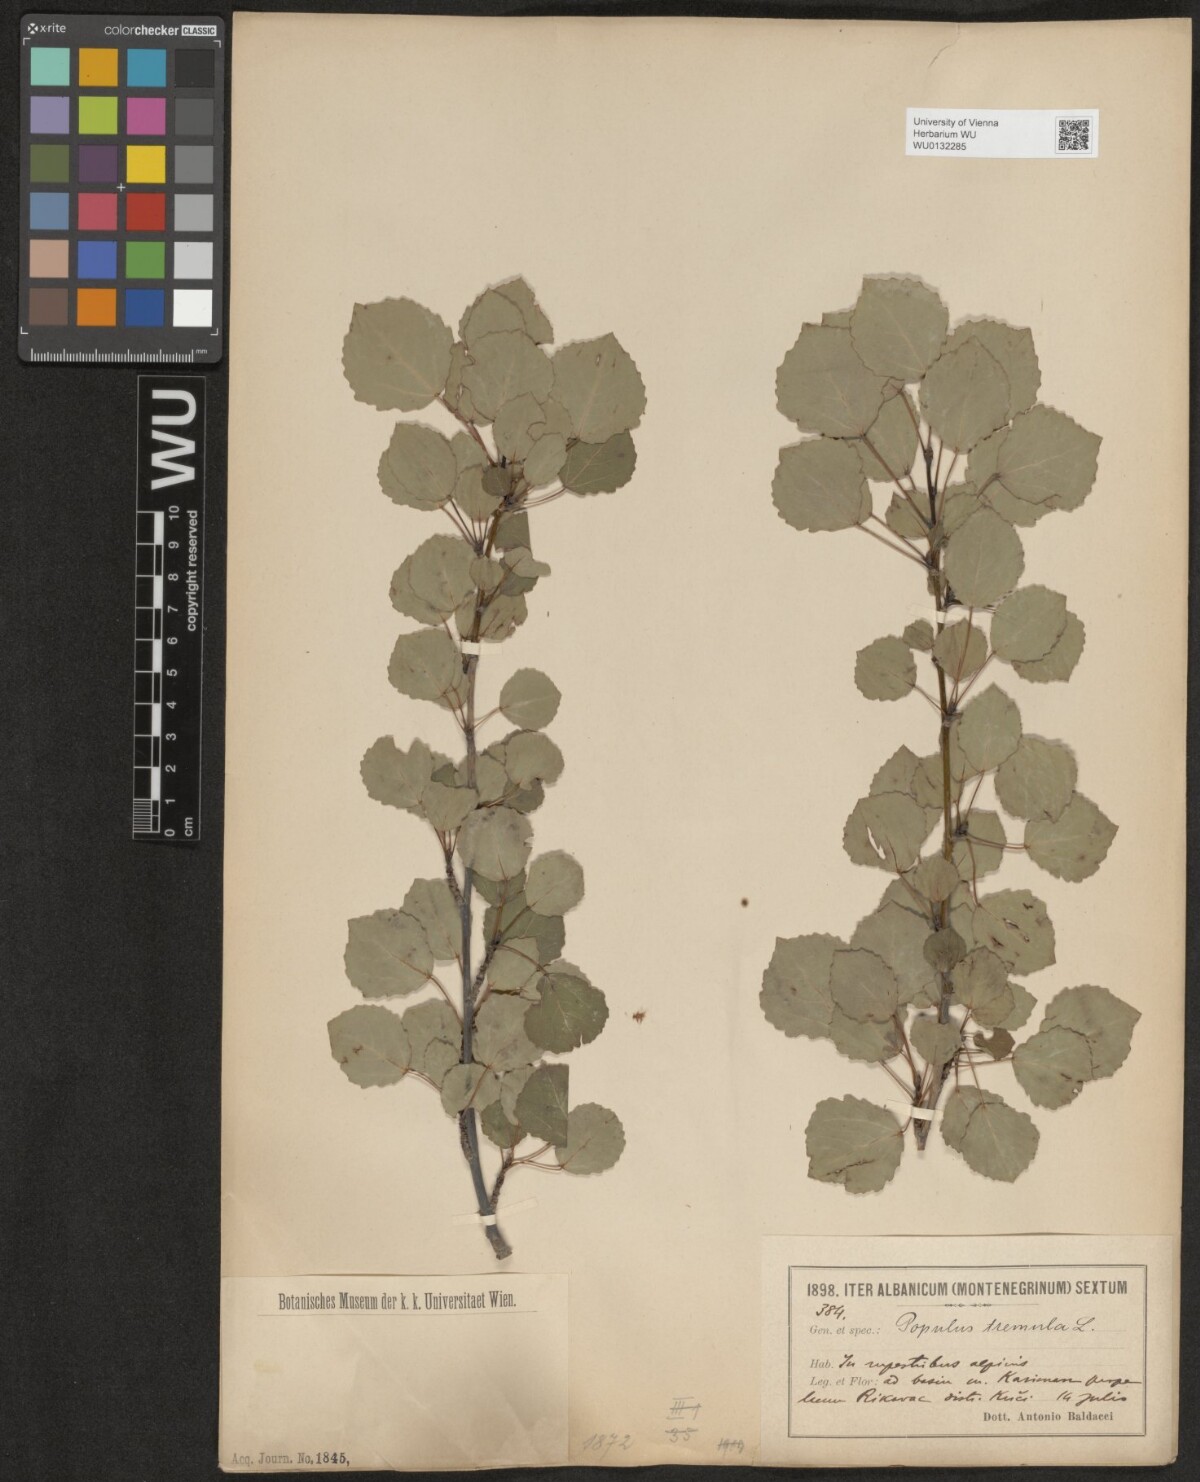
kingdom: Plantae
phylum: Tracheophyta
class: Magnoliopsida
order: Malpighiales
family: Salicaceae
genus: Populus
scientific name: Populus tremula
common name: European aspen
